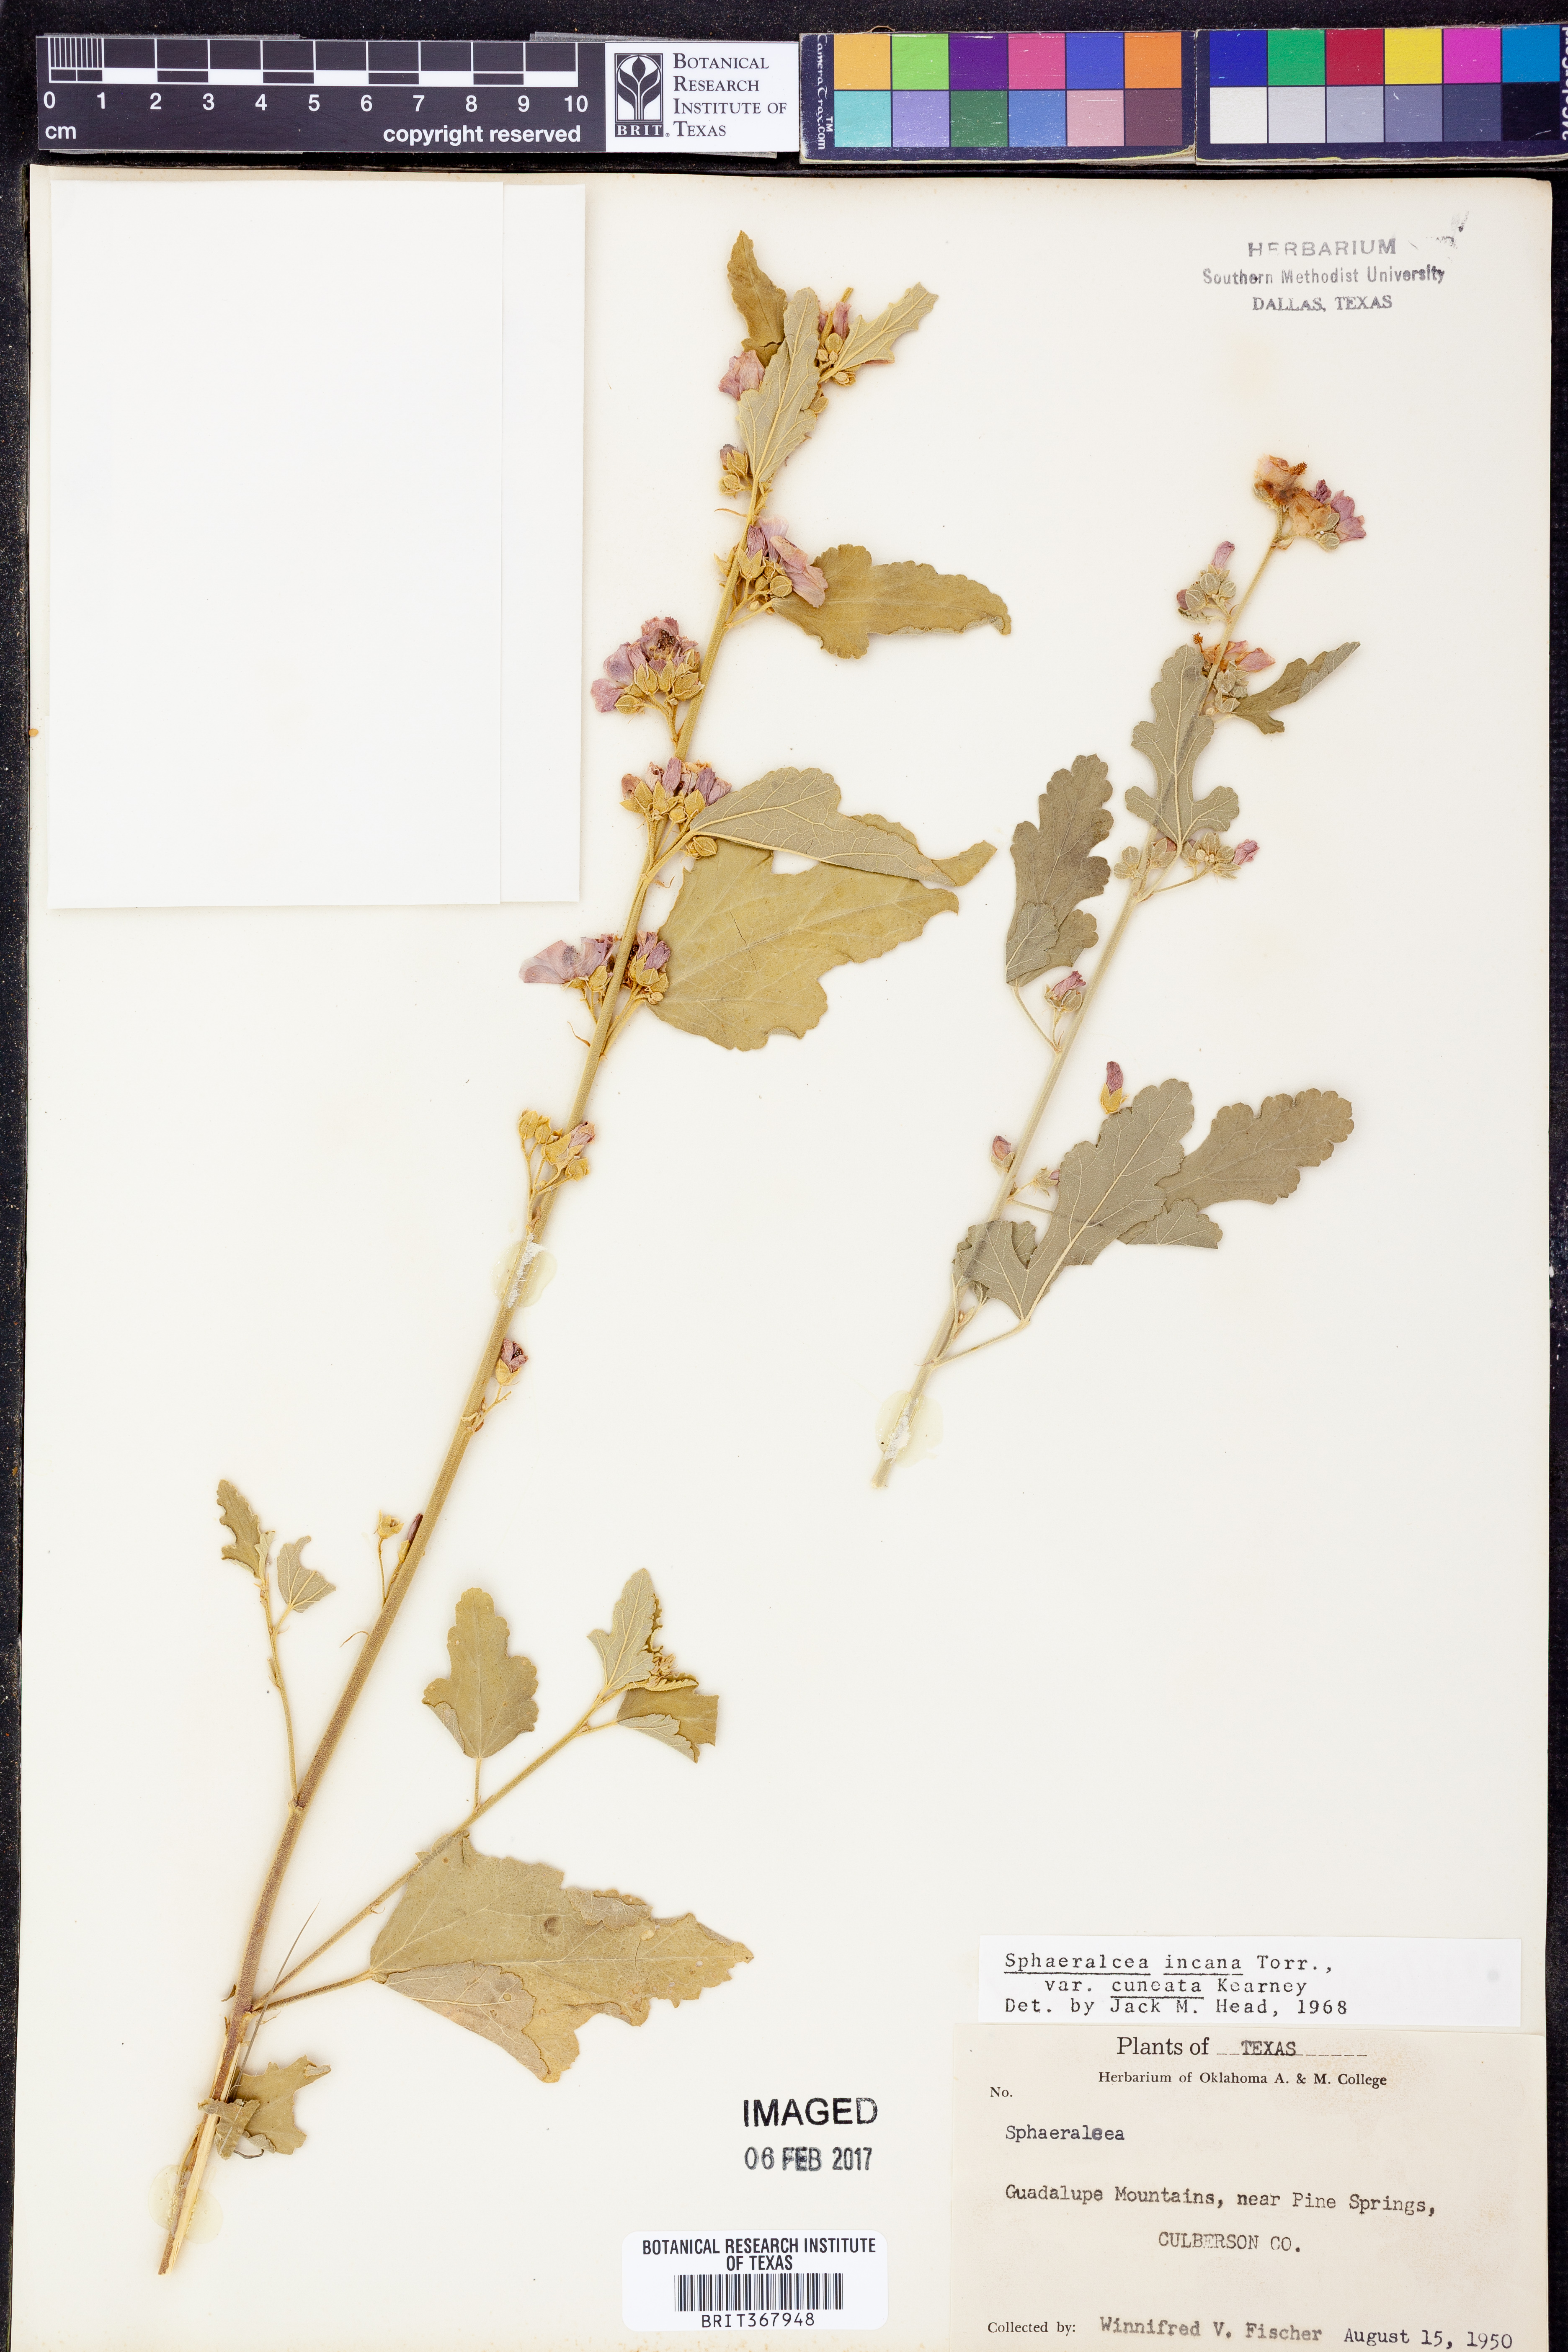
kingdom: Plantae
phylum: Tracheophyta
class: Magnoliopsida
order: Malvales
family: Malvaceae
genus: Sphaeralcea
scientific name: Sphaeralcea angustifolia
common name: Copper globe-mallow
